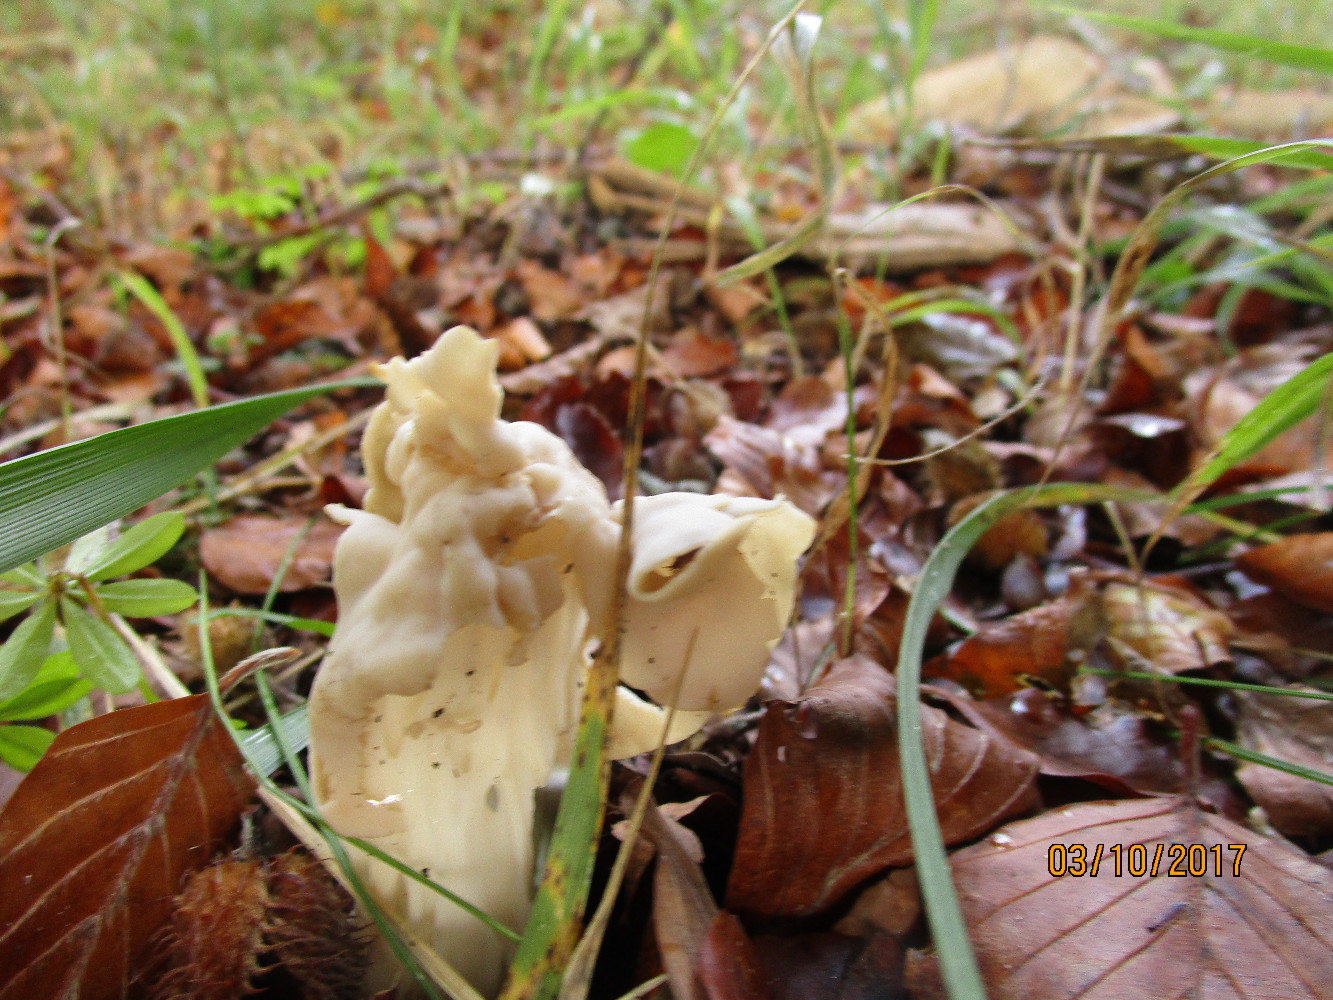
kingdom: Fungi
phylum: Ascomycota
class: Pezizomycetes
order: Pezizales
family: Helvellaceae
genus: Helvella
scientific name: Helvella crispa
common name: kruset foldhat
